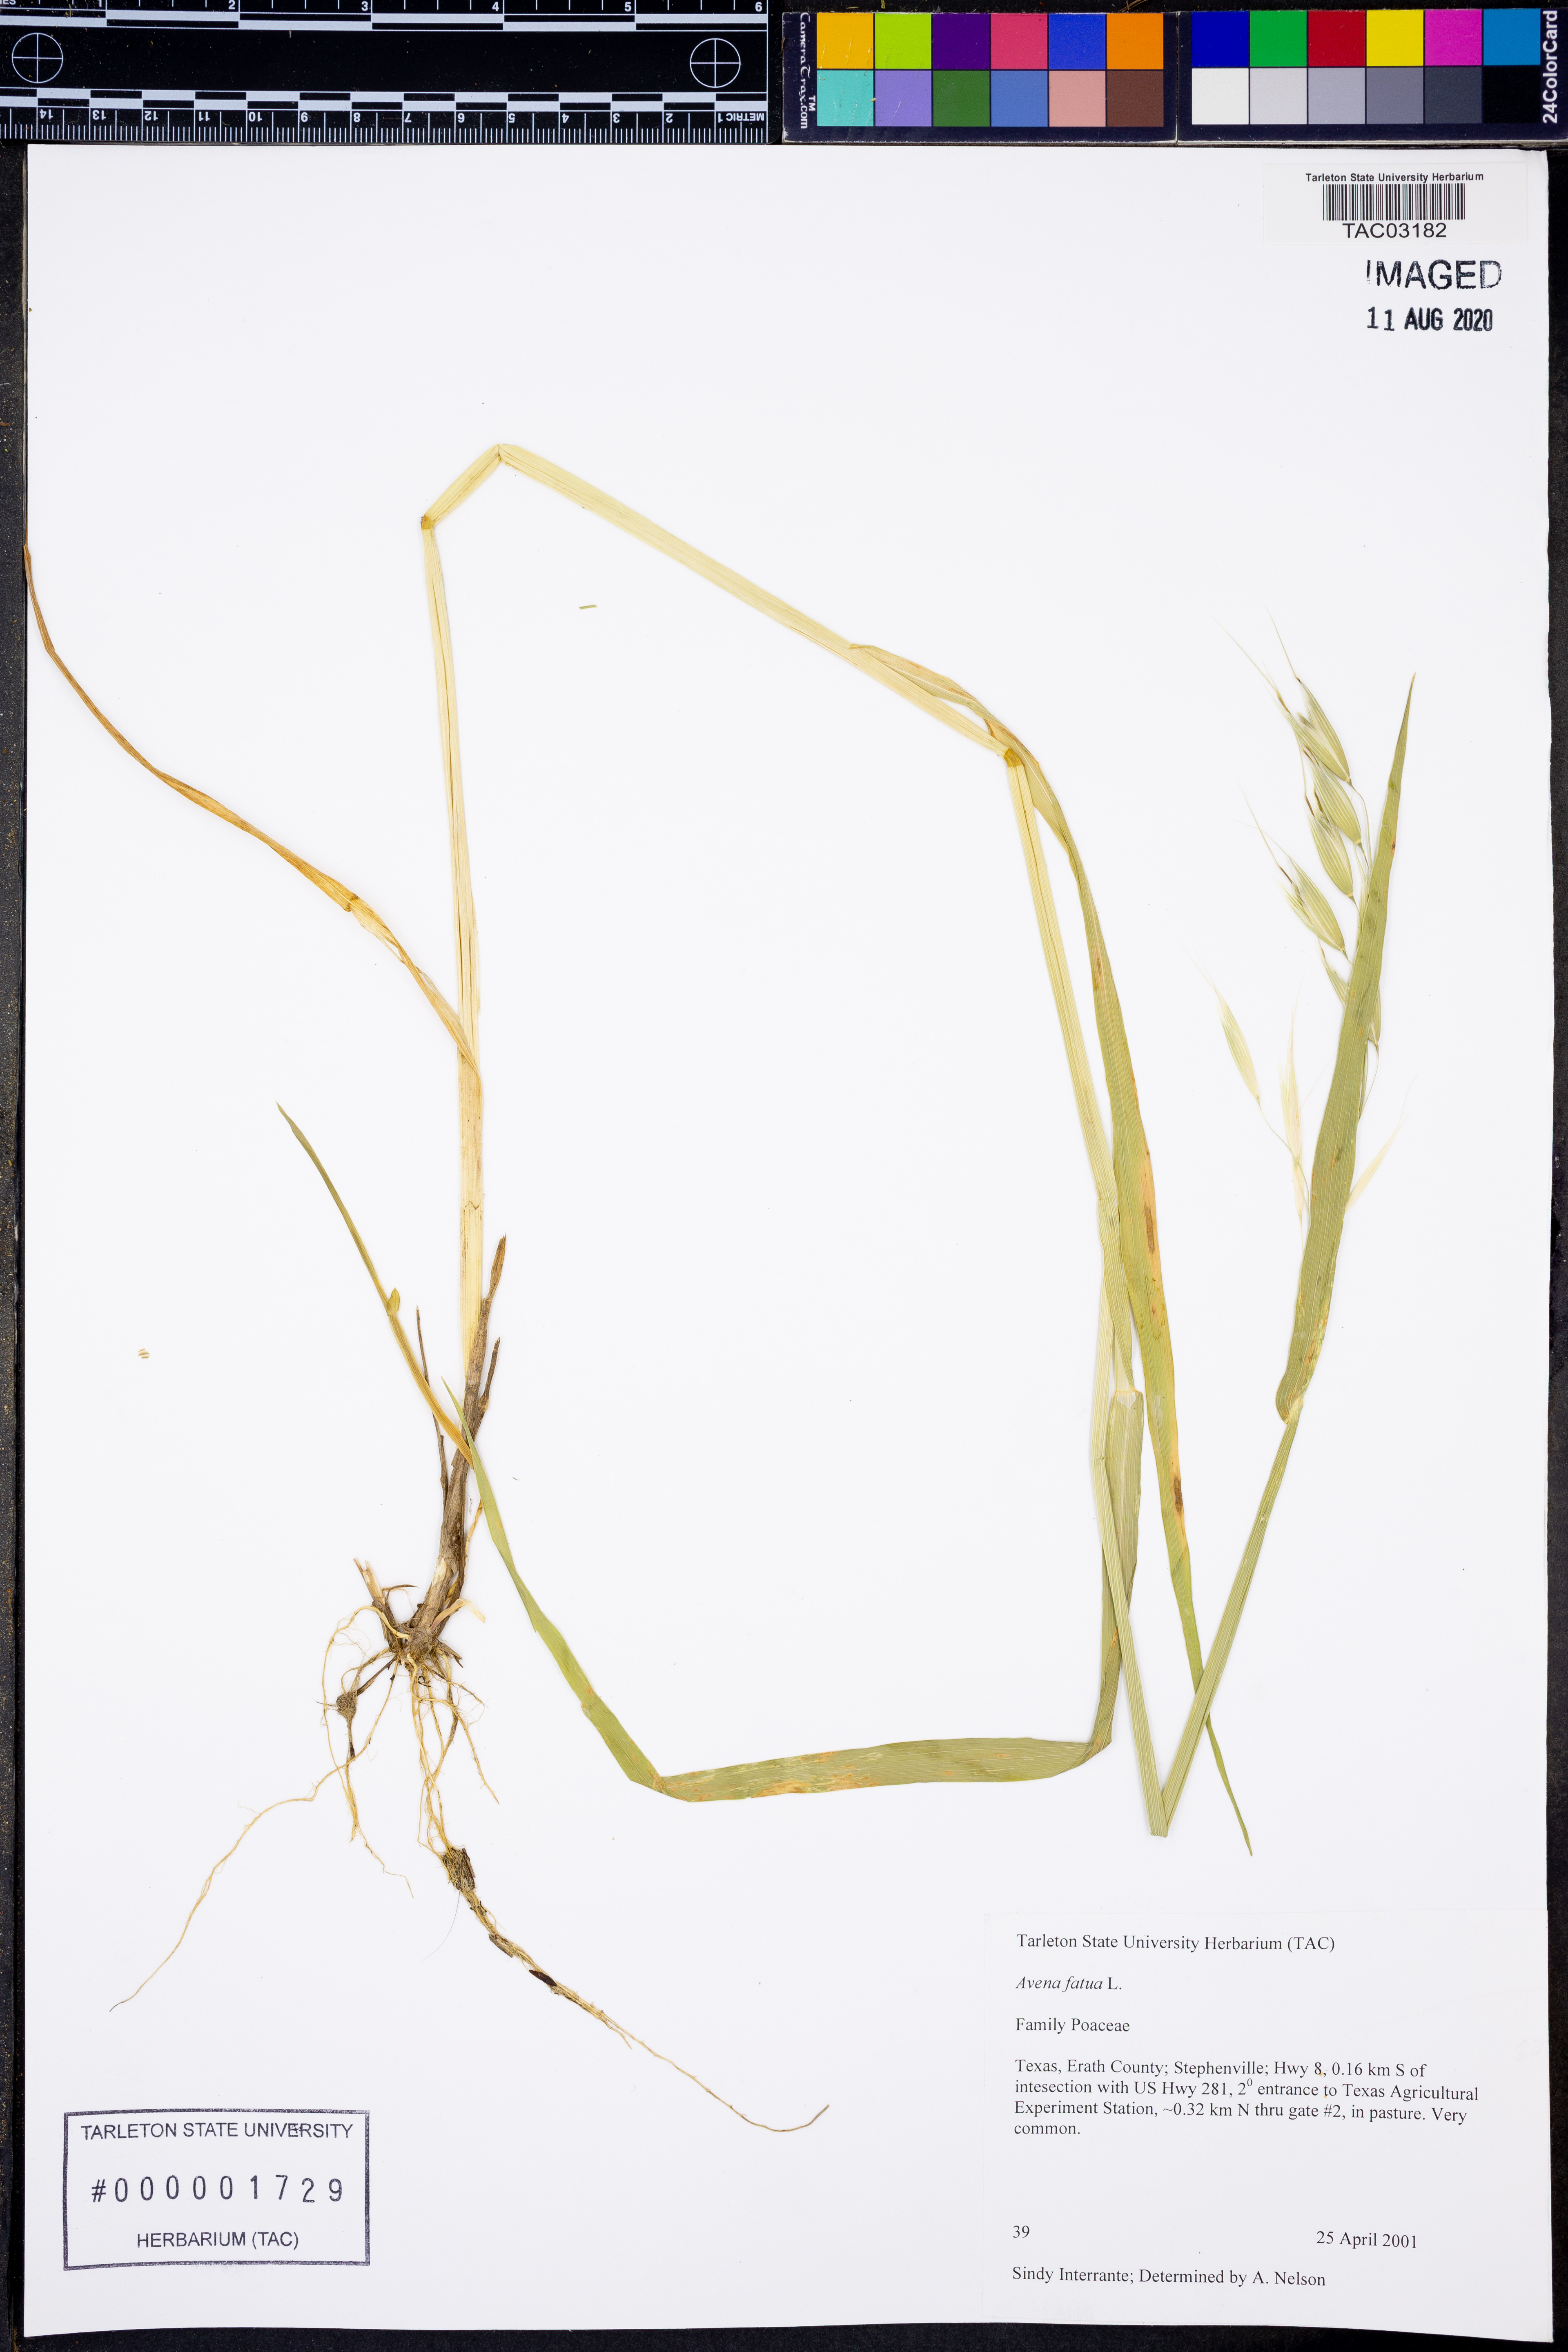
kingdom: Plantae
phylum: Tracheophyta
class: Liliopsida
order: Poales
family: Poaceae
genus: Avena
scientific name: Avena fatua
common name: Wild oat
